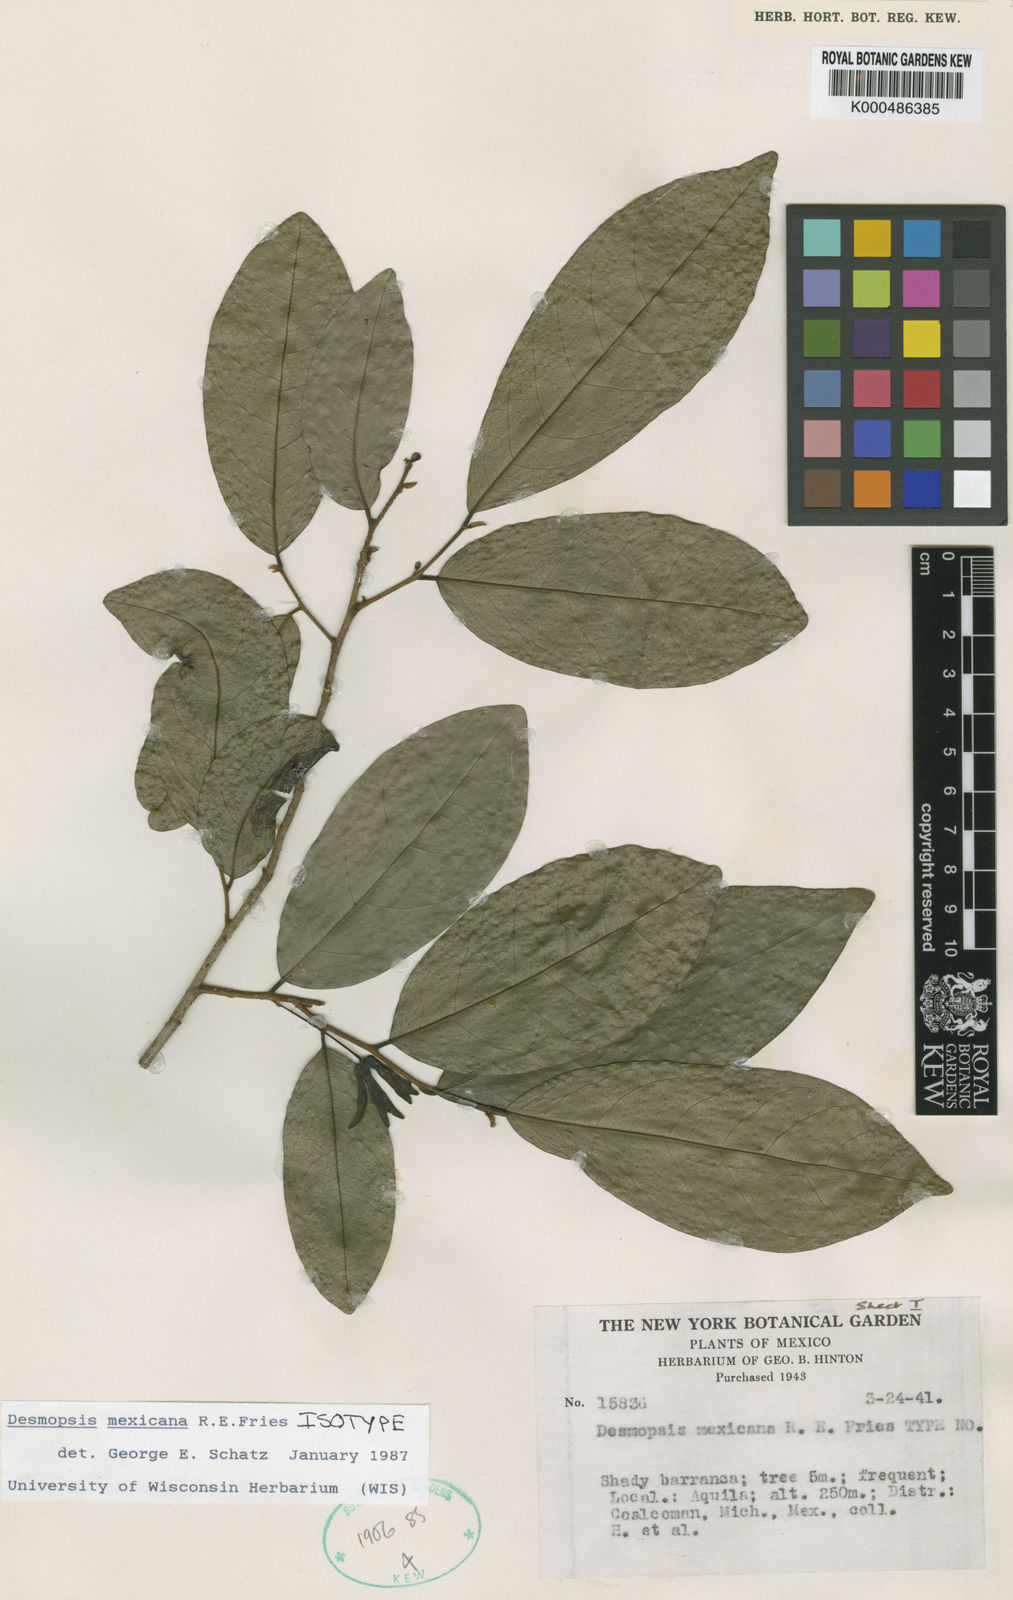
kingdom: Plantae
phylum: Tracheophyta
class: Magnoliopsida
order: Magnoliales
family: Annonaceae
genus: Desmopsis
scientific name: Desmopsis mexicana
